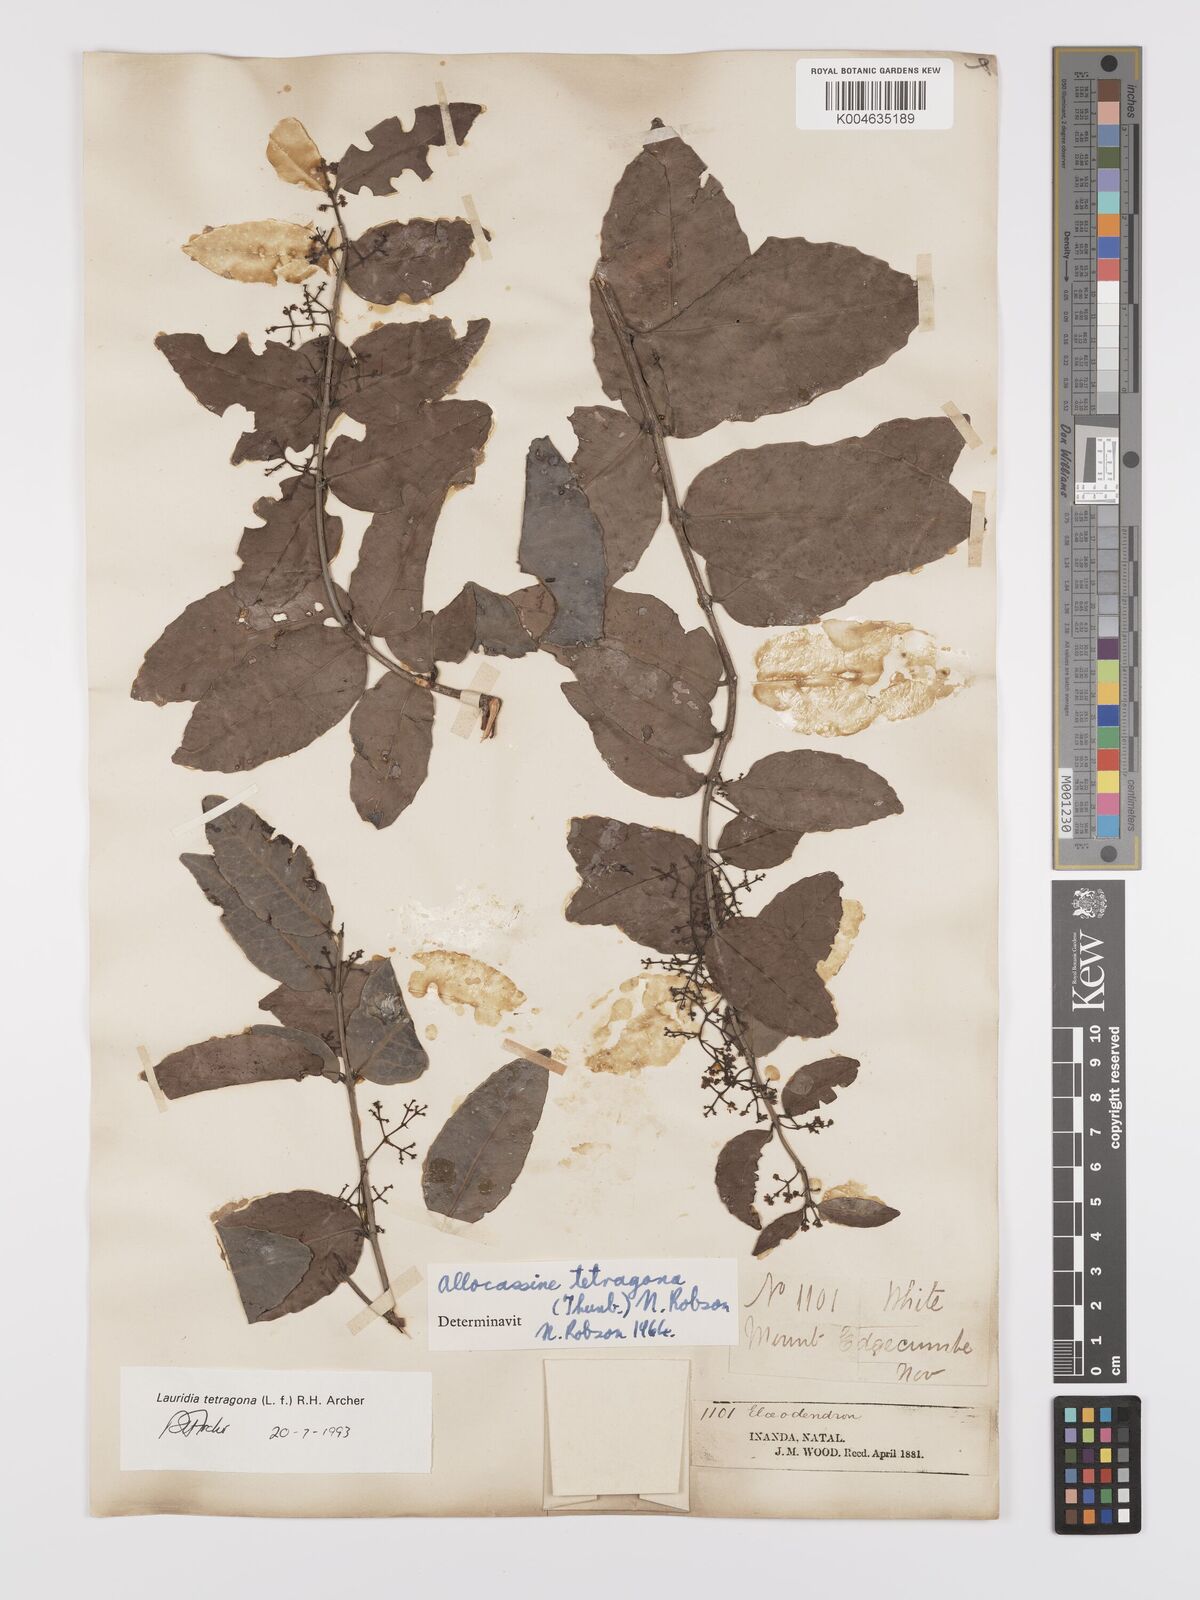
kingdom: Plantae
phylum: Tracheophyta
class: Magnoliopsida
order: Celastrales
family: Celastraceae
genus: Lauridia
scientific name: Lauridia tetragona
